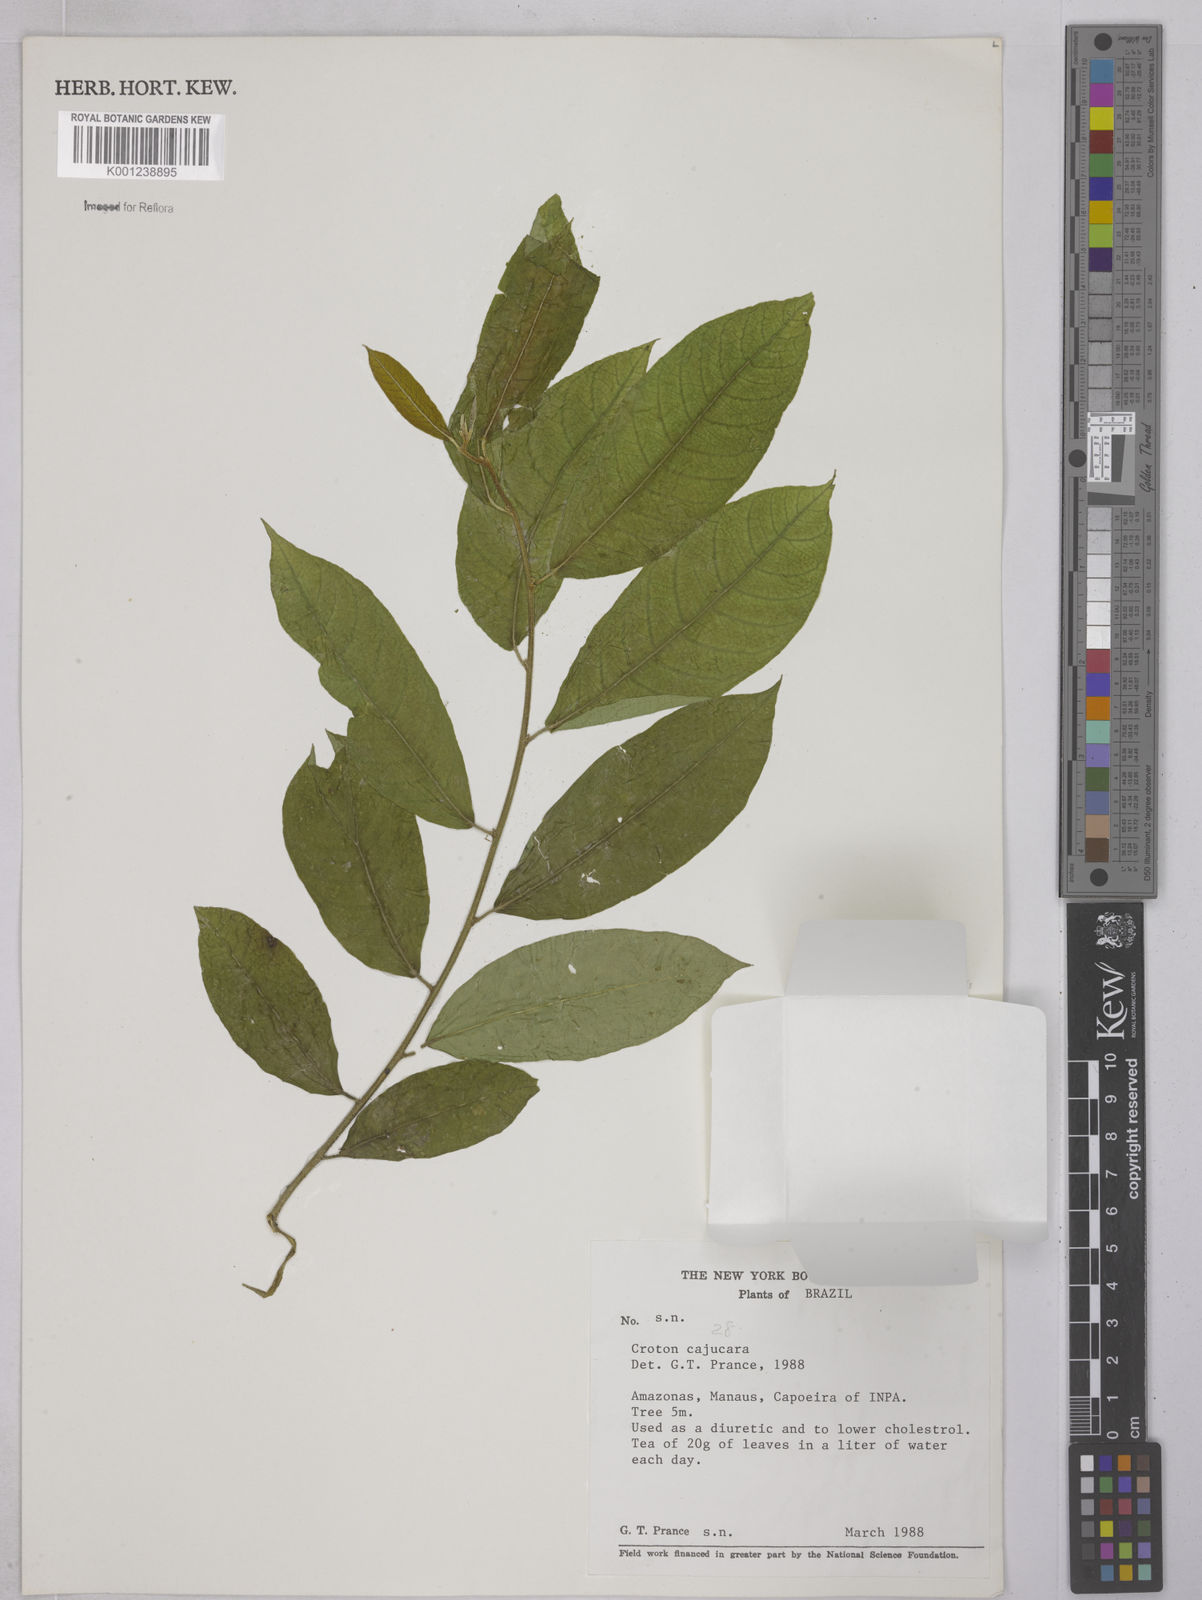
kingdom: Plantae
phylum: Tracheophyta
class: Magnoliopsida
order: Malpighiales
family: Euphorbiaceae
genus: Croton
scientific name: Croton cajucara
